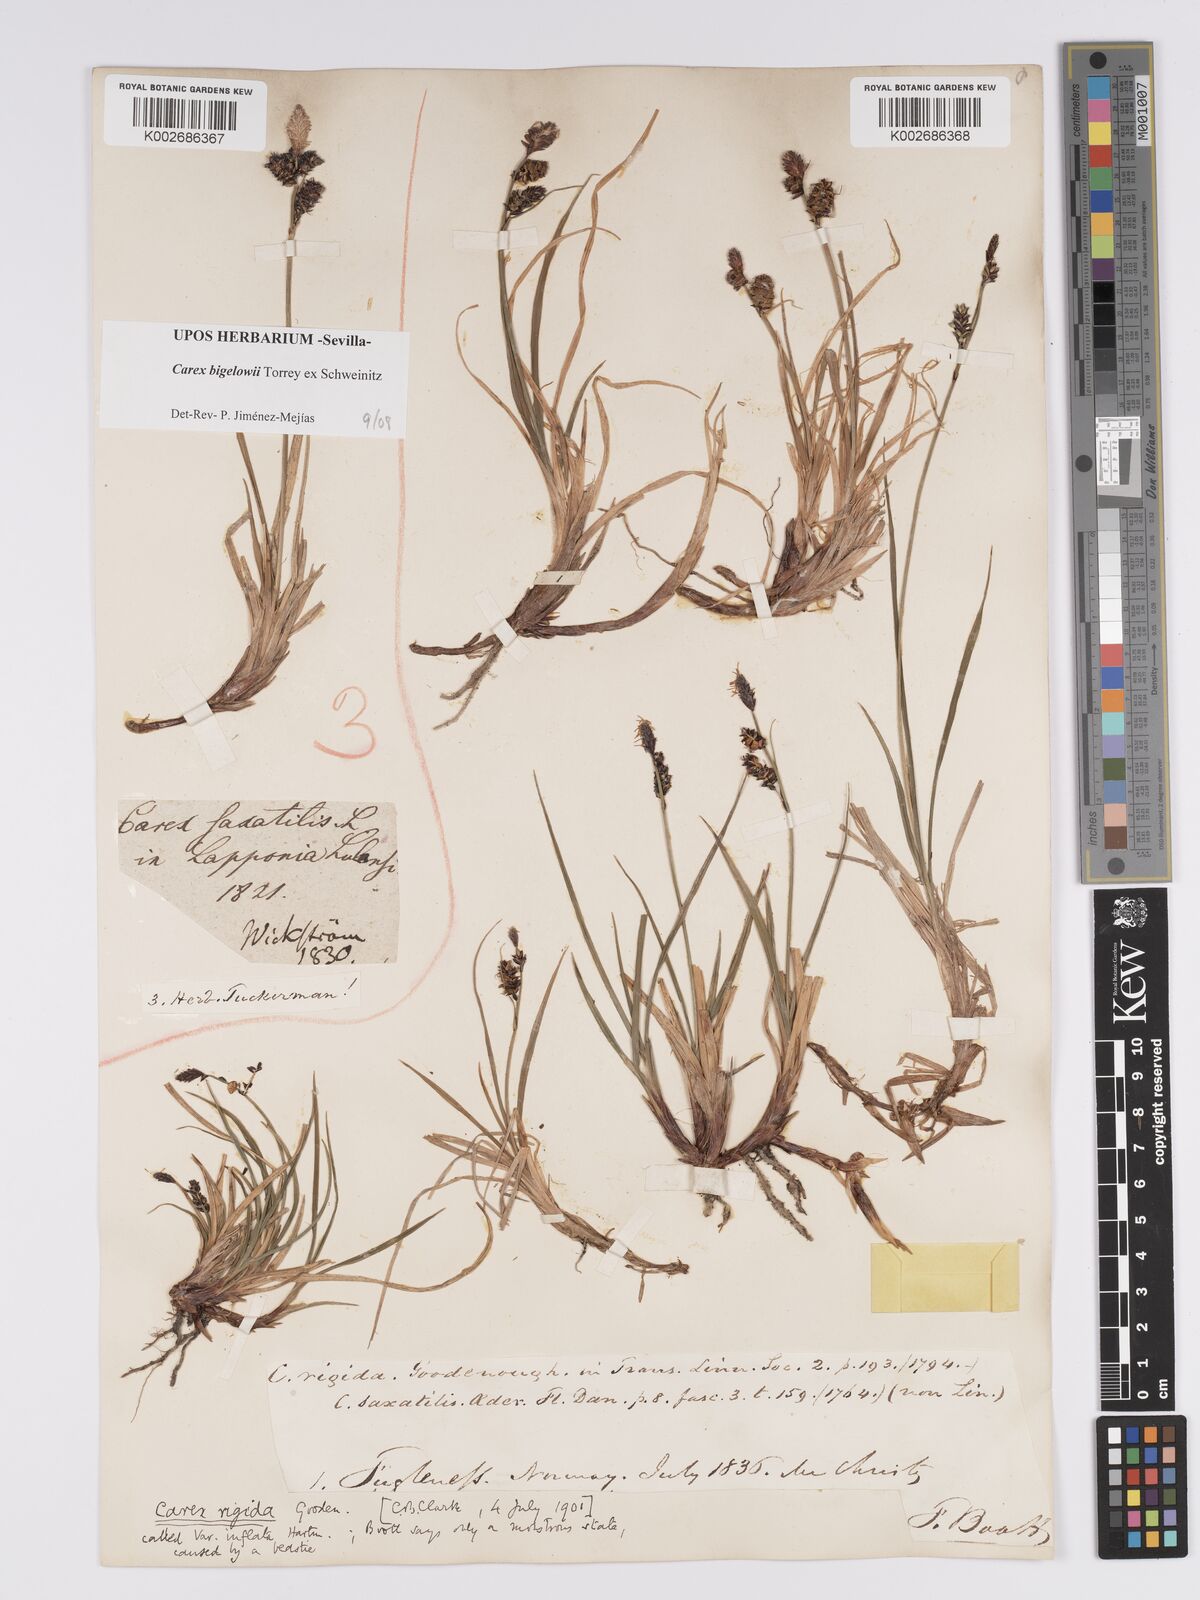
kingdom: Plantae
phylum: Tracheophyta
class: Liliopsida
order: Poales
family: Cyperaceae
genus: Carex
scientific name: Carex bigelowii
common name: Stiff sedge
